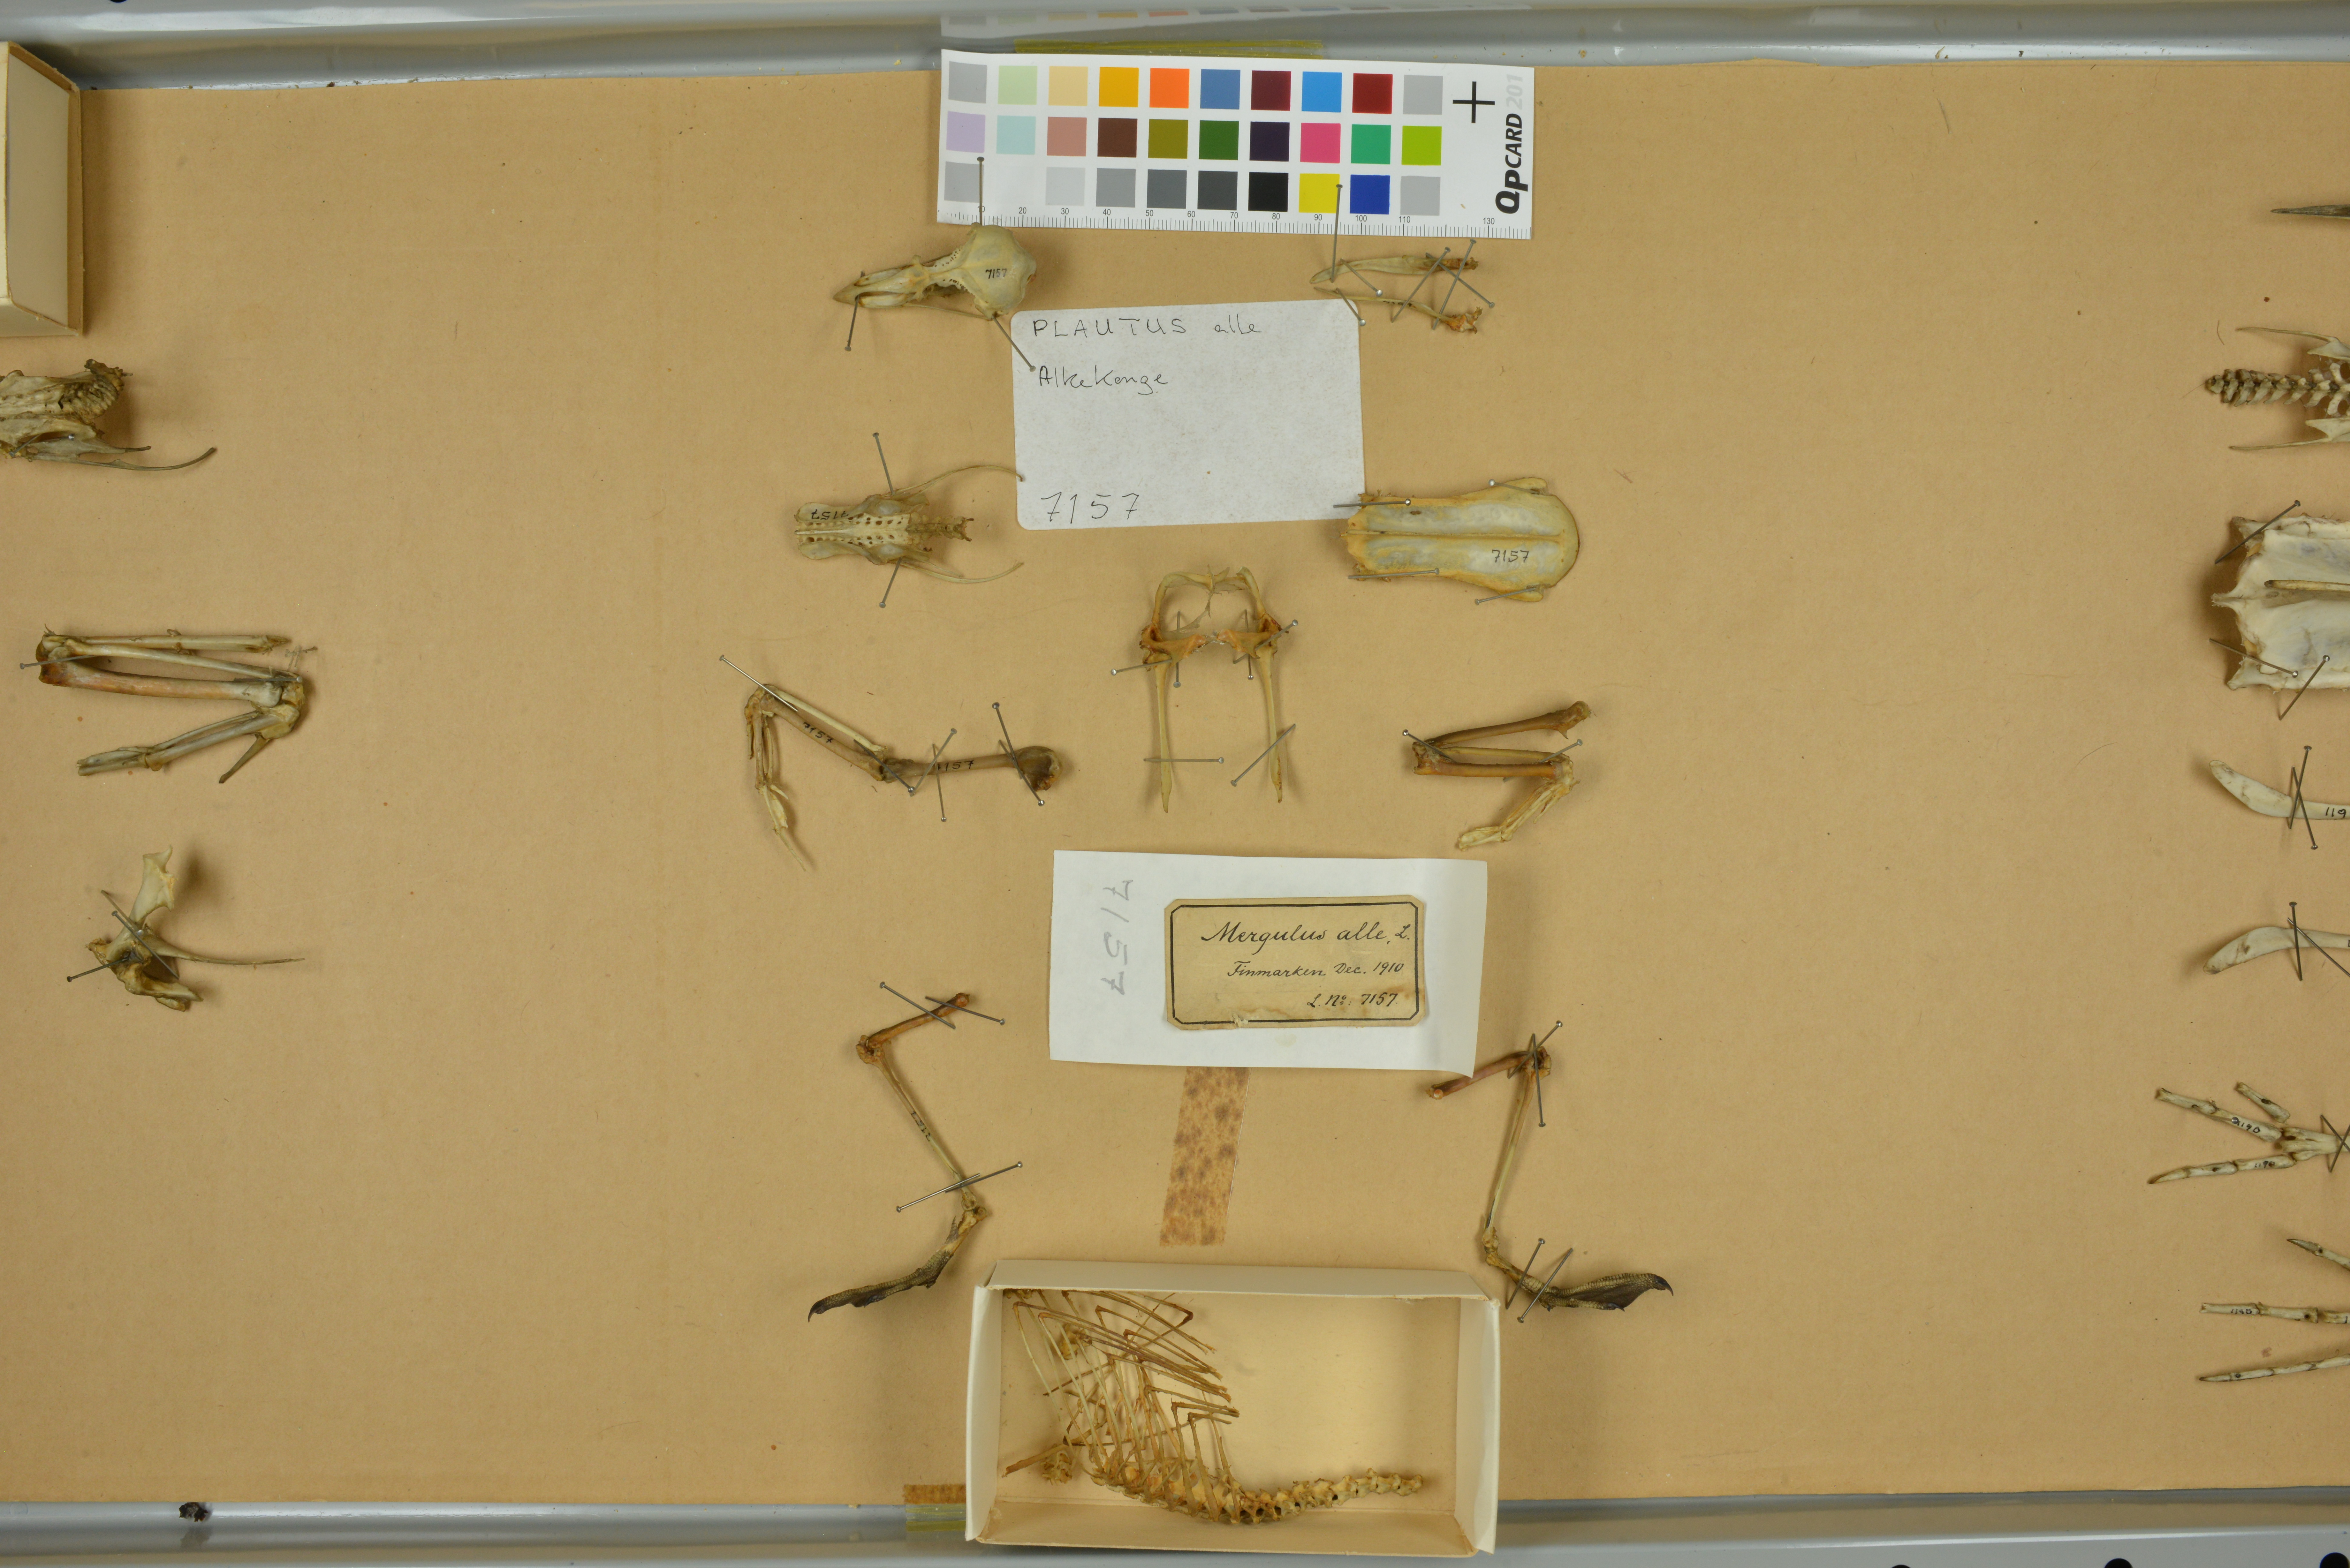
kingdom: Animalia
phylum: Chordata
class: Aves
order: Charadriiformes
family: Alcidae
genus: Alle
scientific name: Alle alle
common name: Little auk
